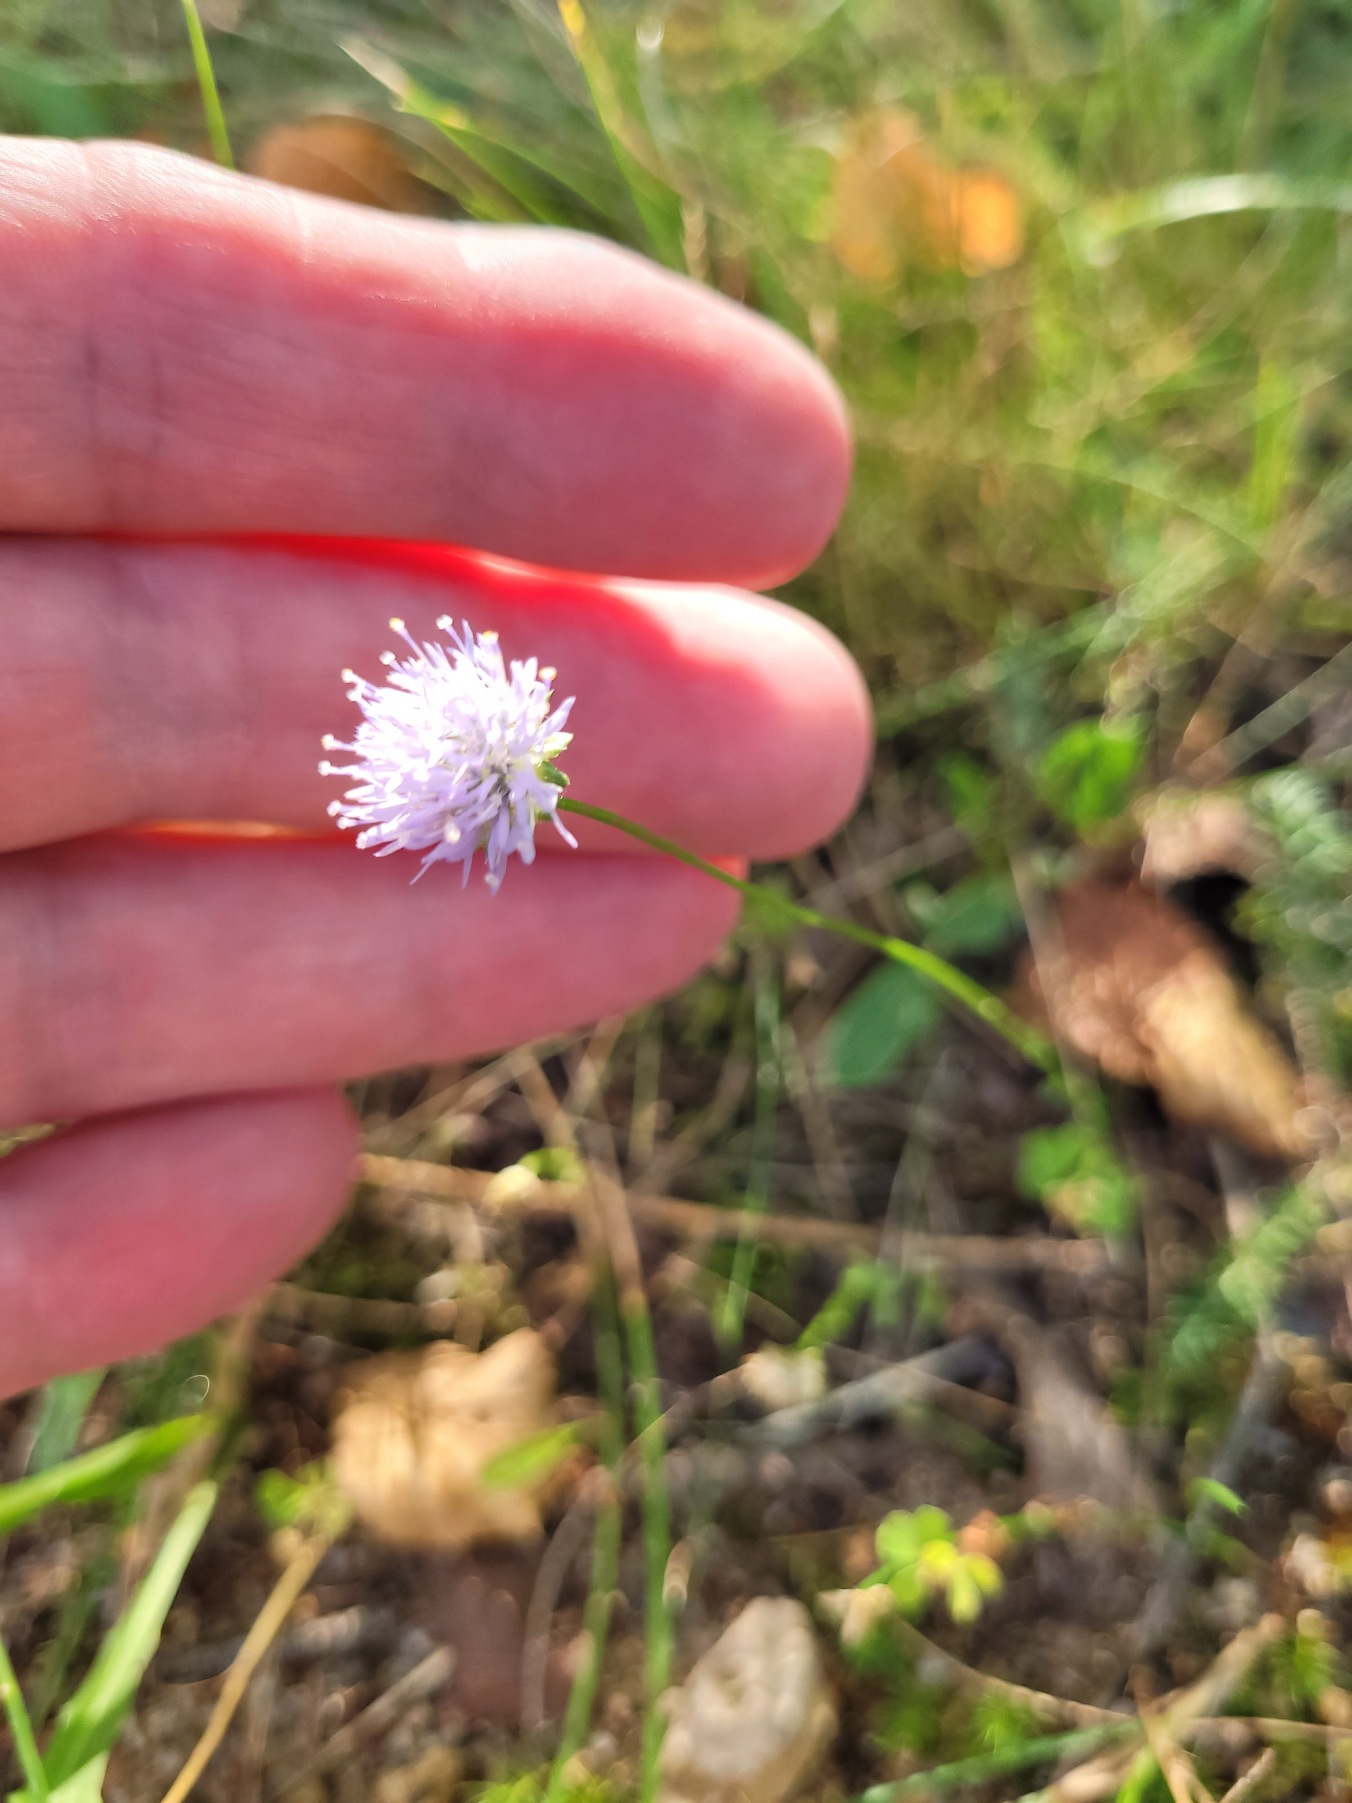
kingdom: Plantae
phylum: Tracheophyta
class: Magnoliopsida
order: Asterales
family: Campanulaceae
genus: Jasione
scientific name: Jasione montana
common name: Blåmunke
